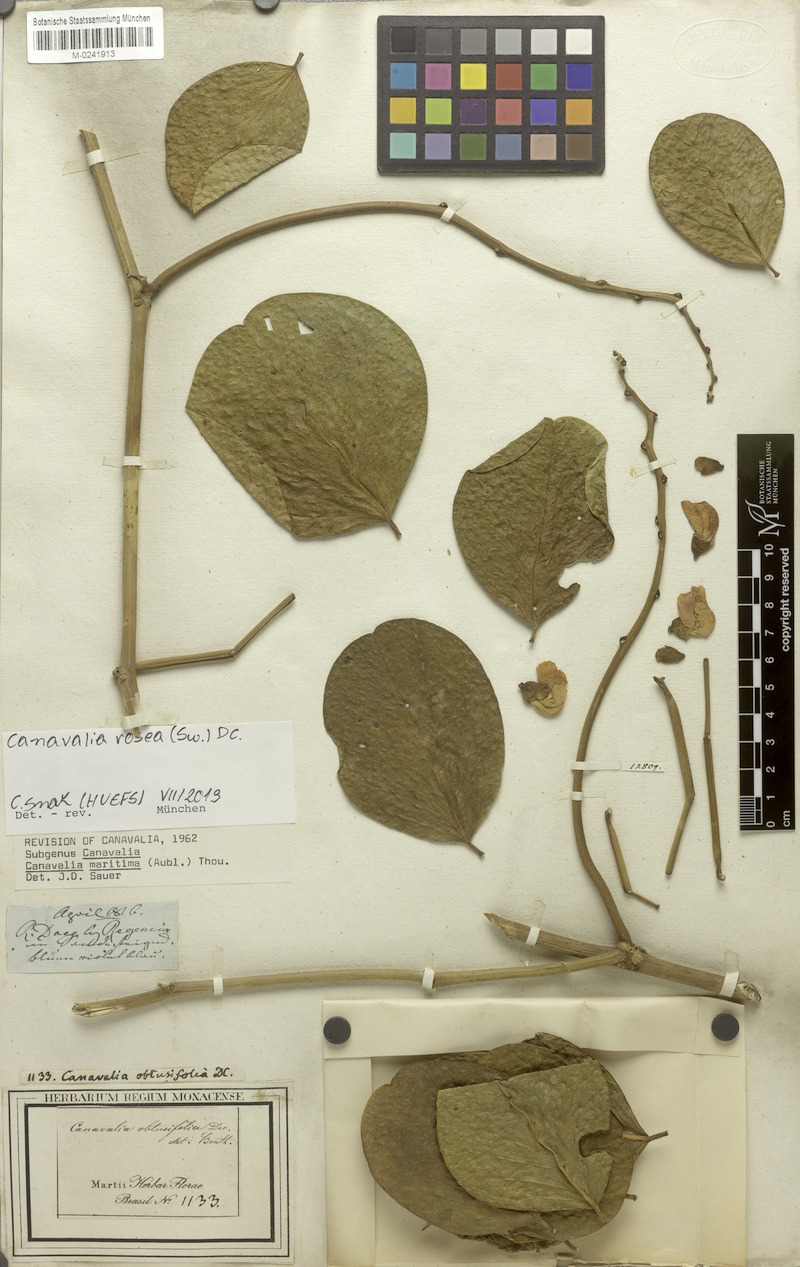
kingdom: Plantae
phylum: Tracheophyta
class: Magnoliopsida
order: Fabales
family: Fabaceae
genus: Canavalia
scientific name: Canavalia rosea
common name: Beach-bean
